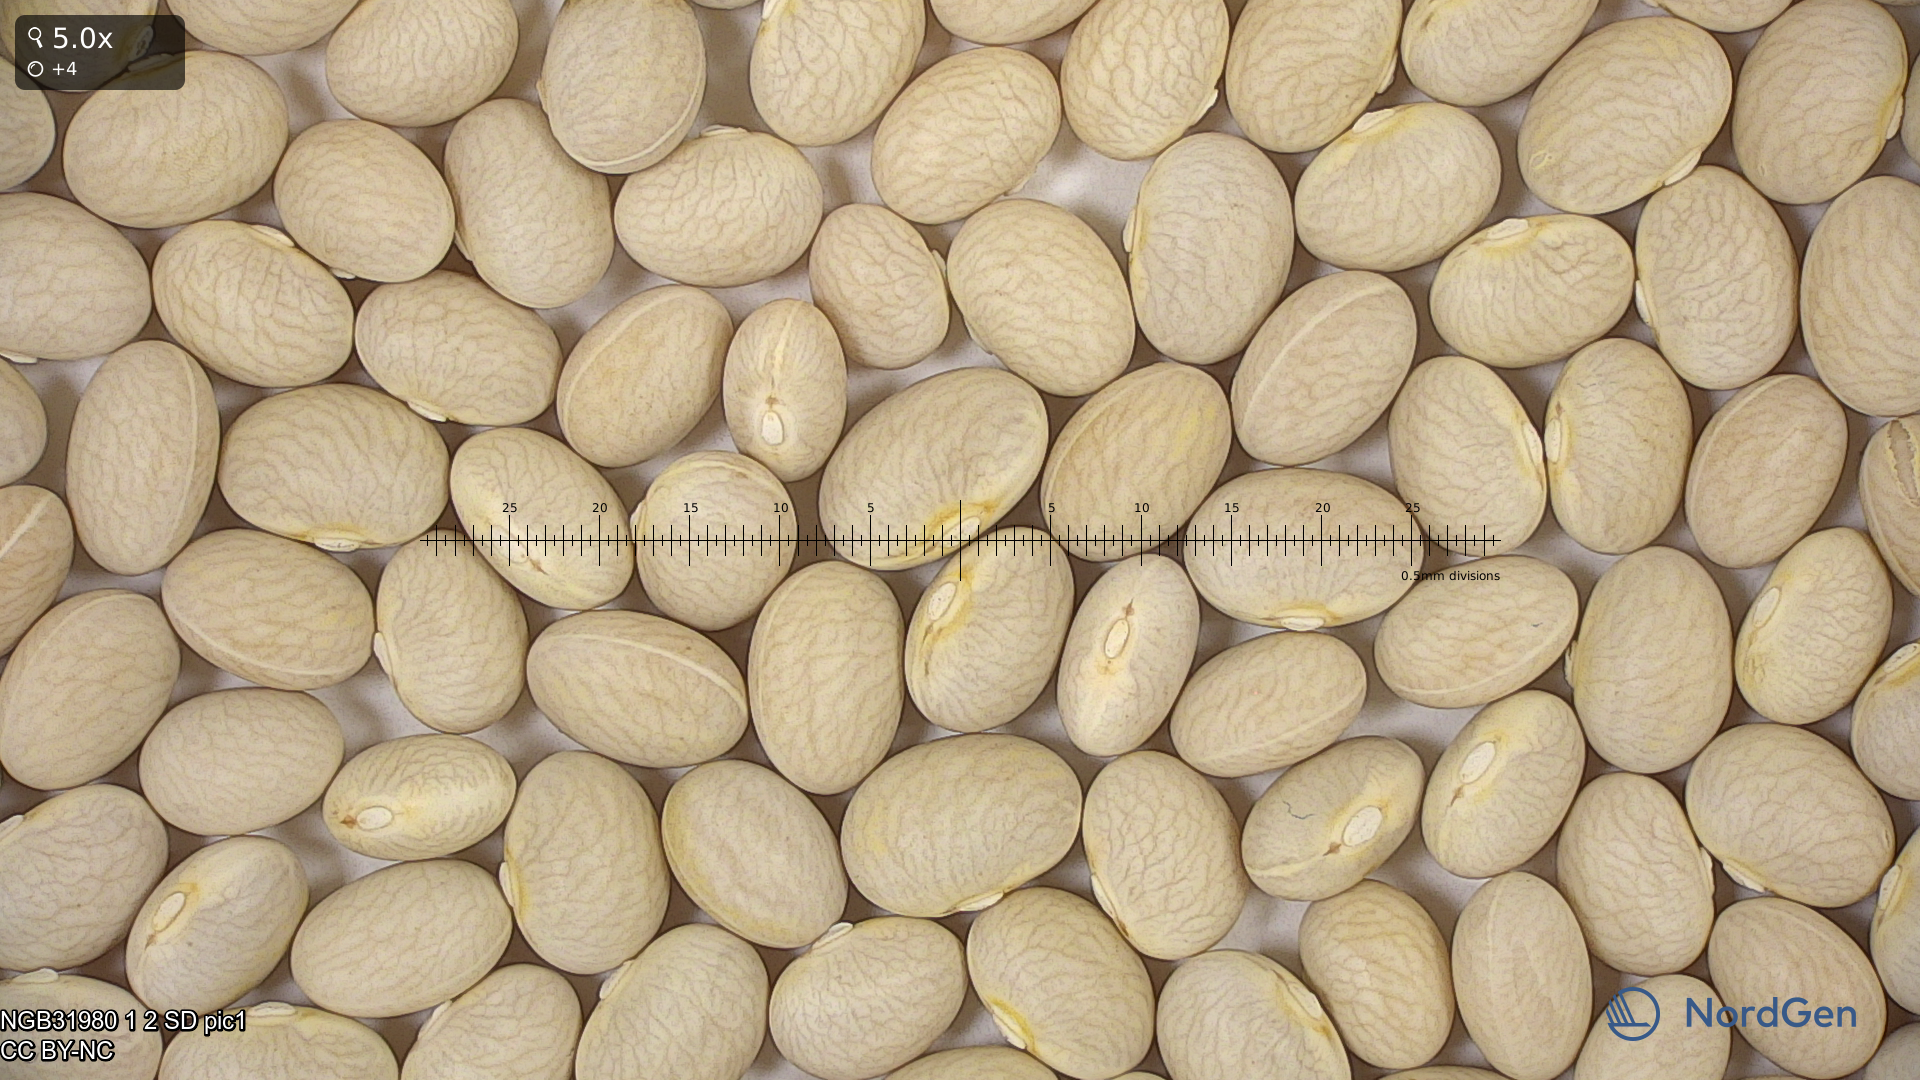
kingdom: Plantae
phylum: Tracheophyta
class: Magnoliopsida
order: Fabales
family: Fabaceae
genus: Phaseolus
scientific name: Phaseolus vulgaris
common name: Bean
